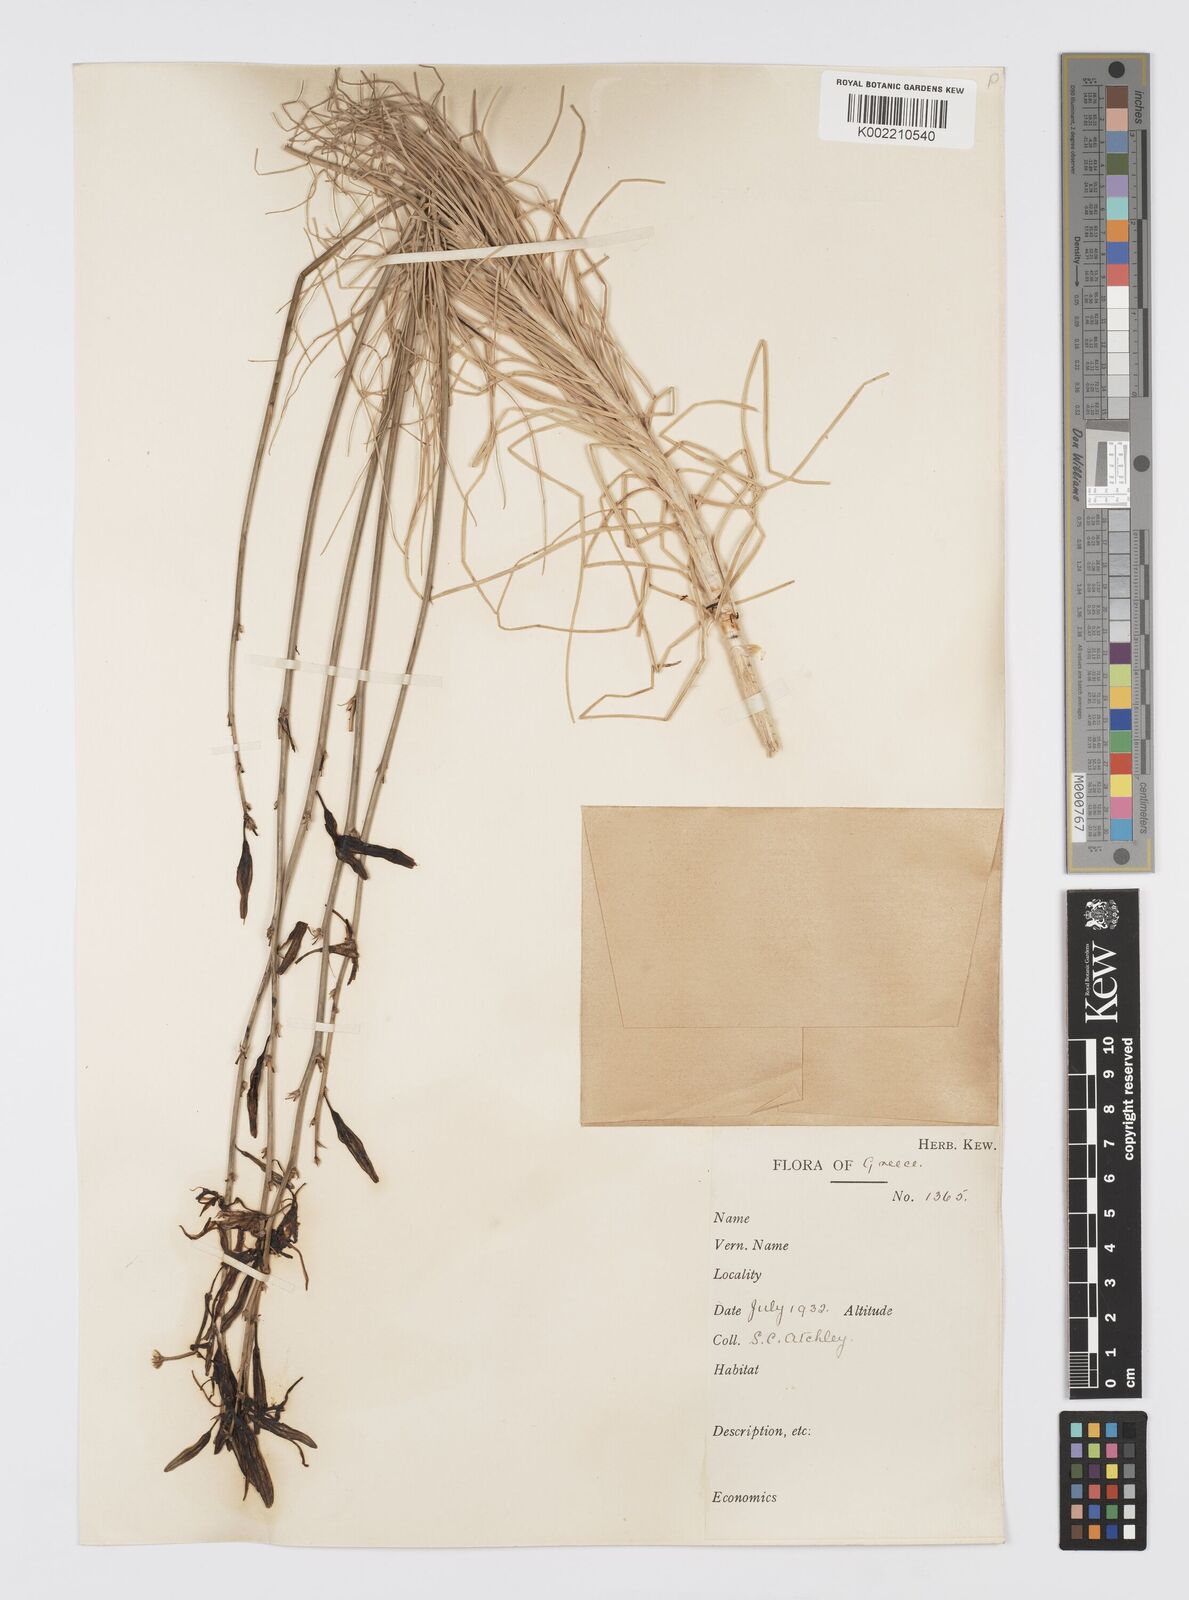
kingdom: Plantae
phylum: Tracheophyta
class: Liliopsida
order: Asparagales
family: Asphodelaceae
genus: Asphodeline
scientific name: Asphodeline liburnica
